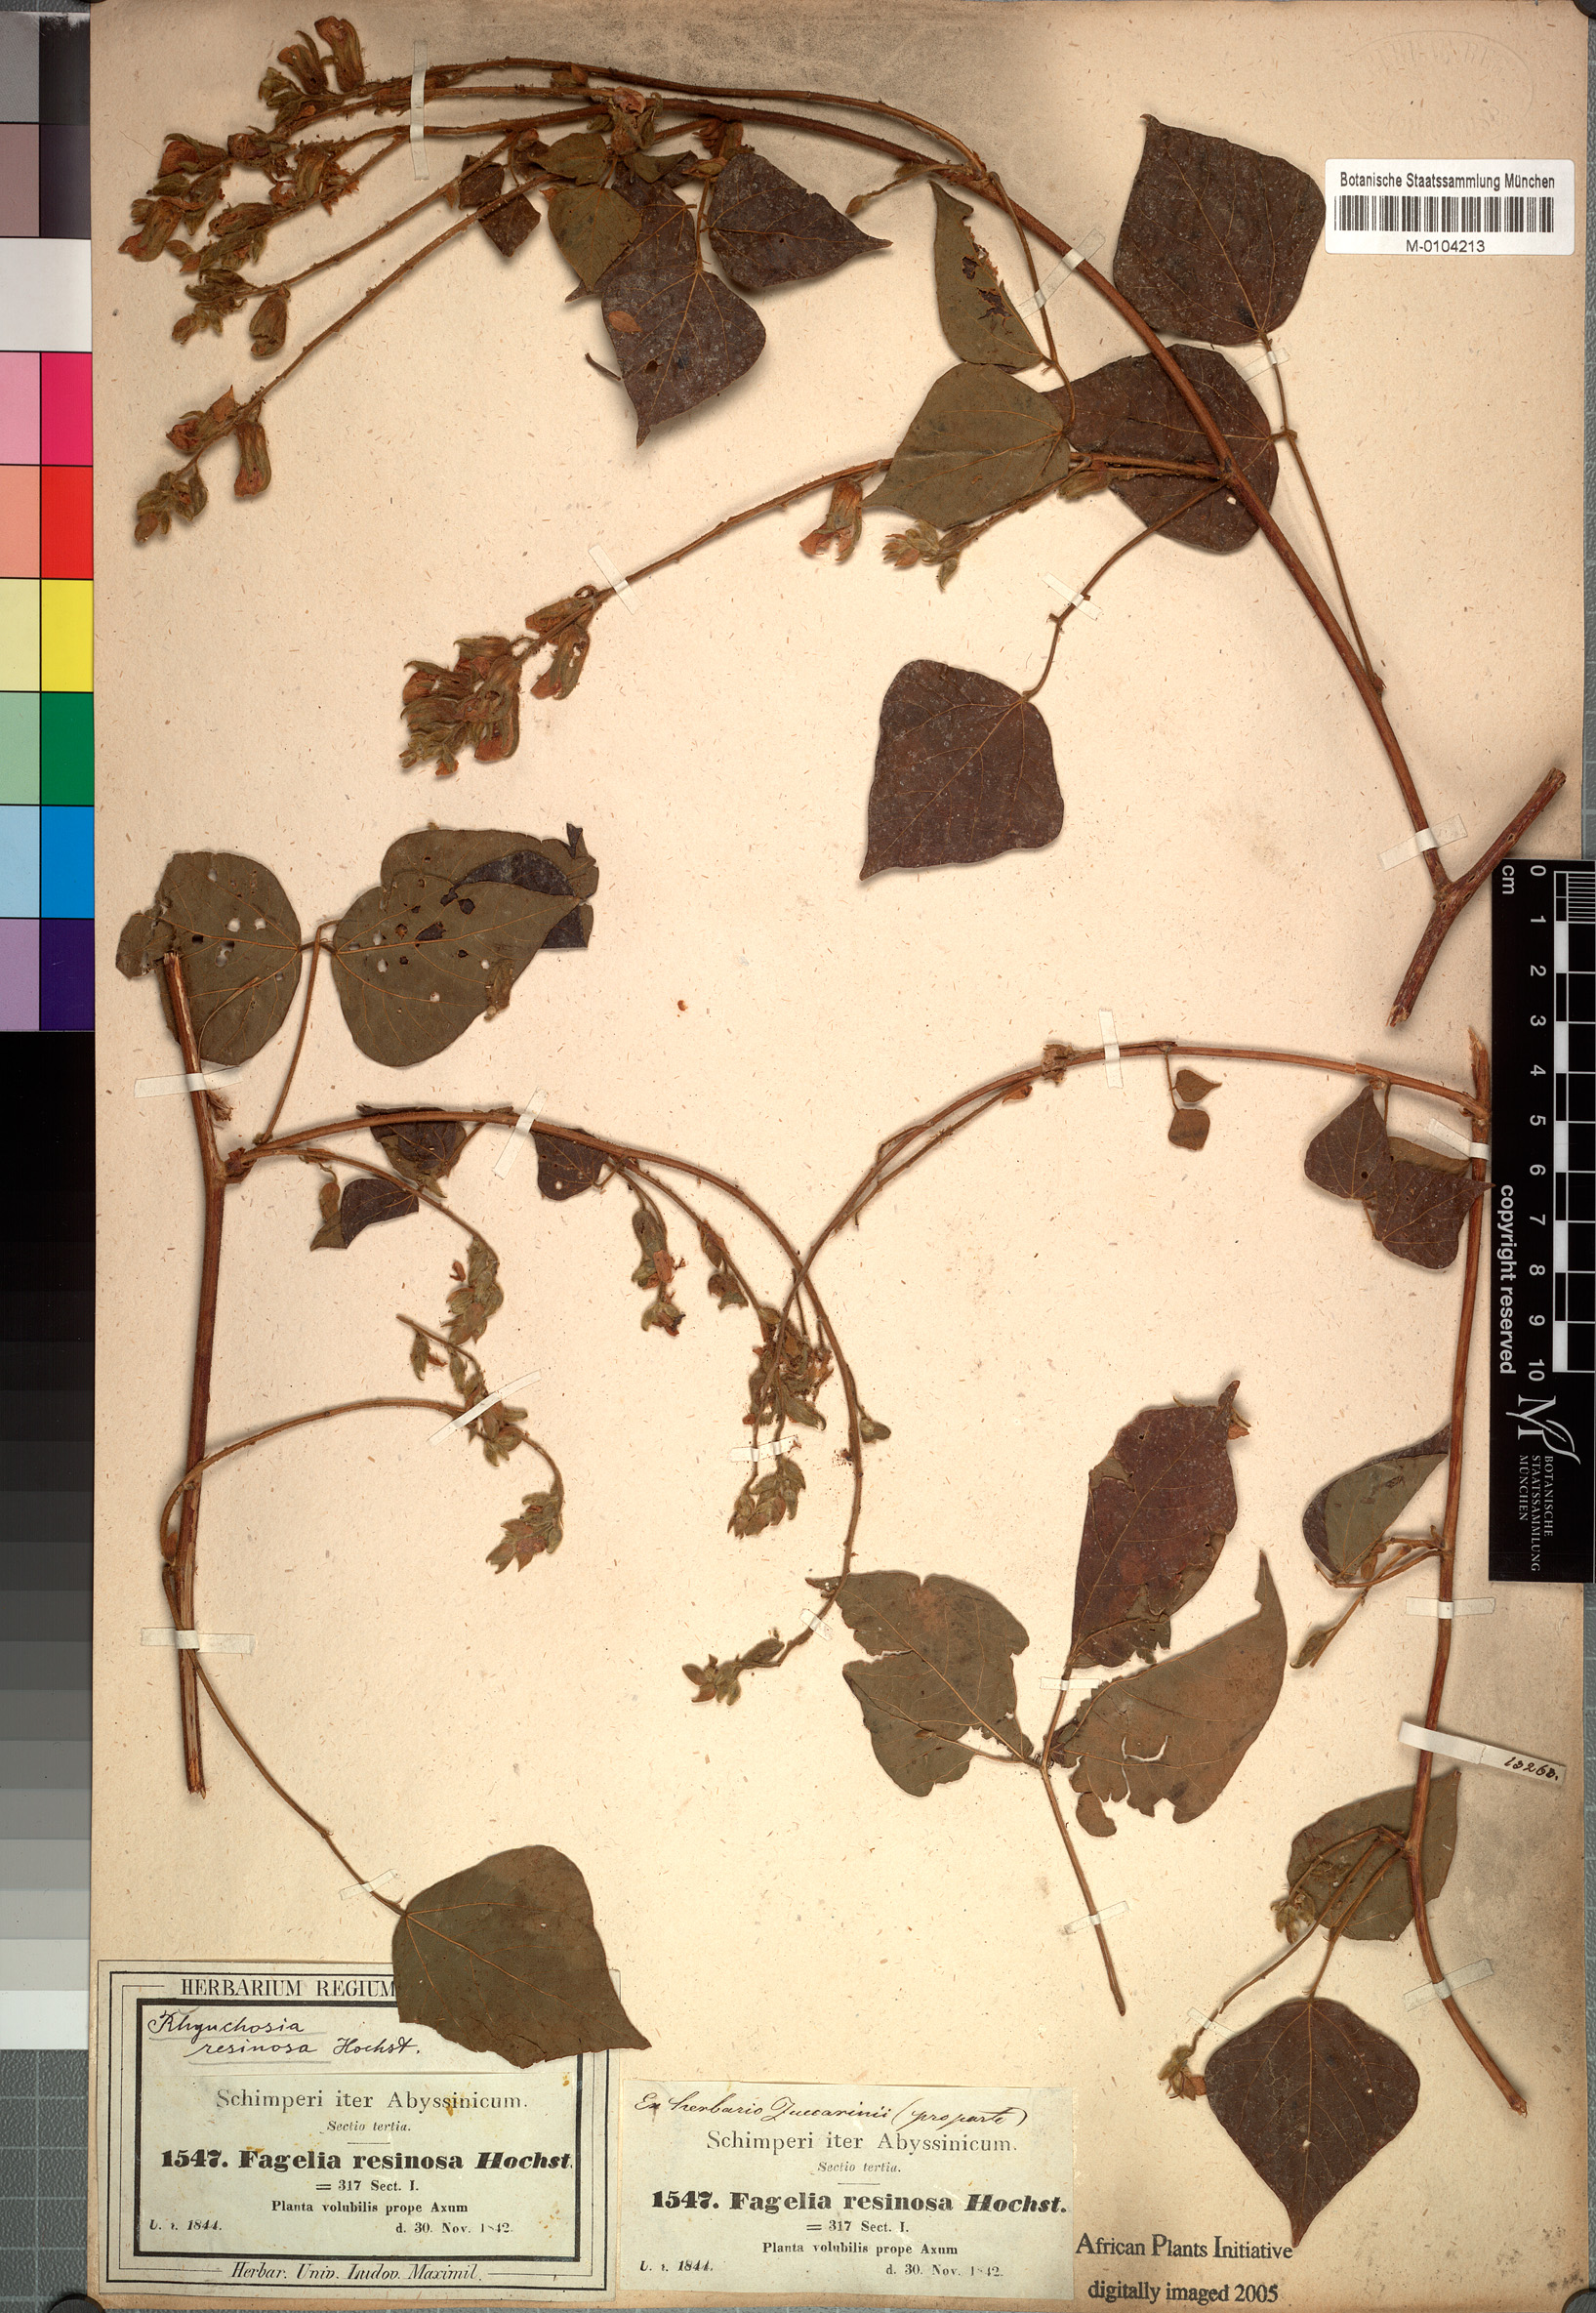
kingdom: Plantae
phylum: Tracheophyta
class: Magnoliopsida
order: Fabales
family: Fabaceae
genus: Rhynchosia
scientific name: Rhynchosia resinosa
